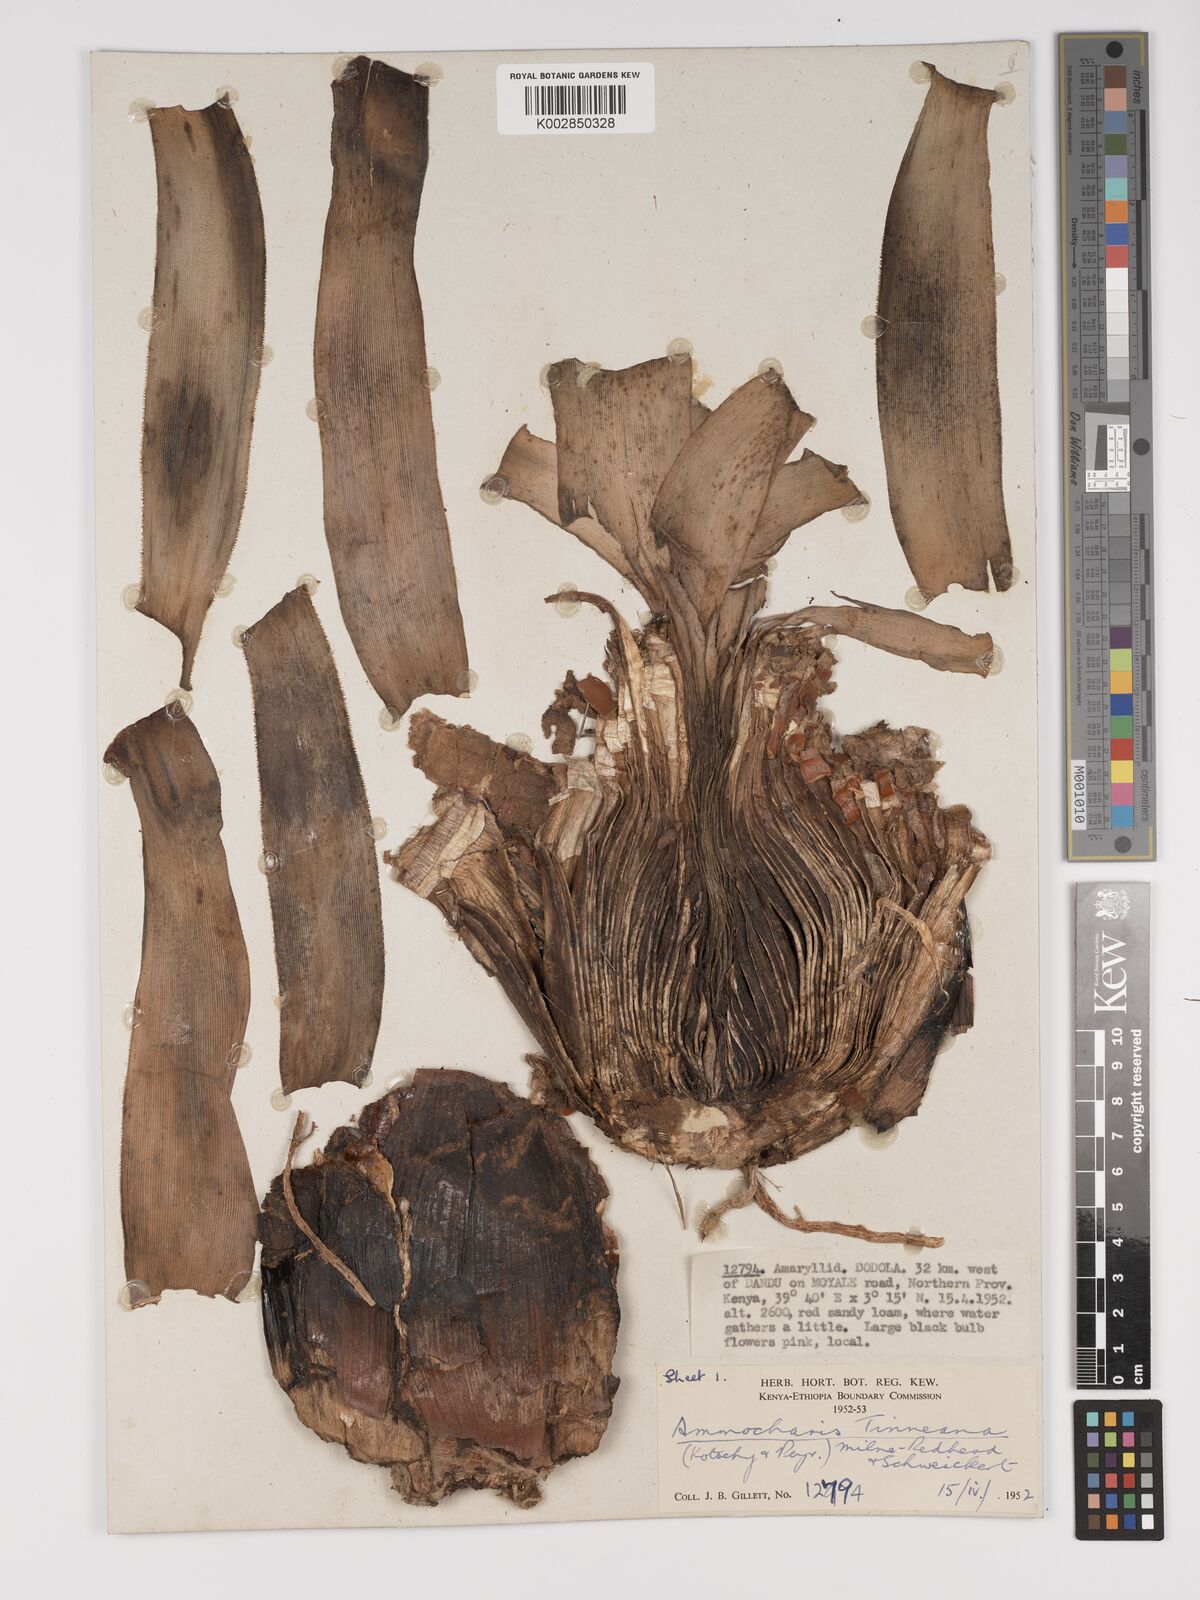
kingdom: Plantae
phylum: Tracheophyta
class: Liliopsida
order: Asparagales
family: Amaryllidaceae
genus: Ammocharis
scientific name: Ammocharis tinneana
